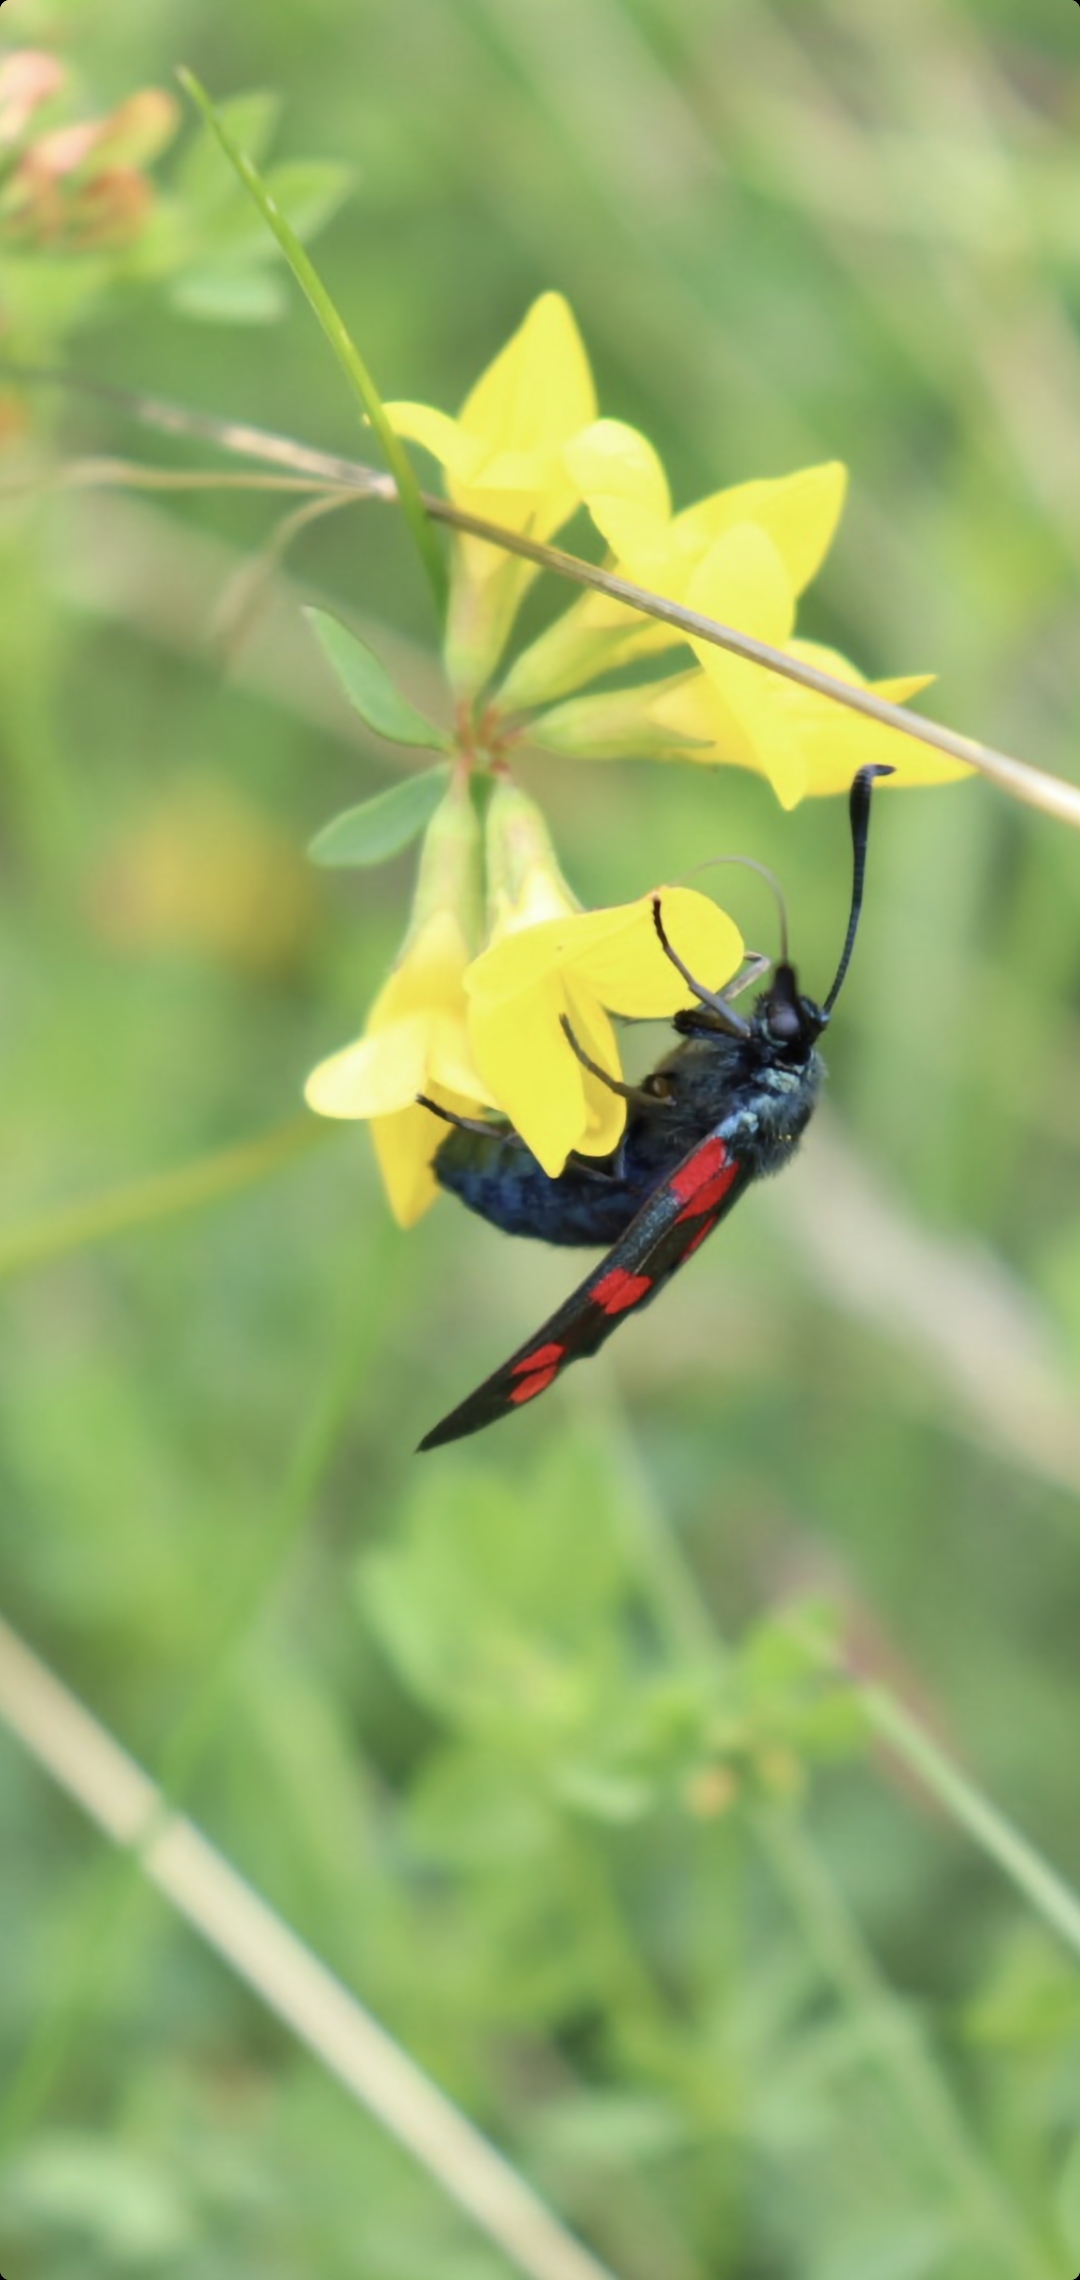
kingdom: Animalia
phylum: Arthropoda
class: Insecta
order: Lepidoptera
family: Zygaenidae
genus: Zygaena
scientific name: Zygaena filipendulae
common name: Seksplettet køllesværmer
